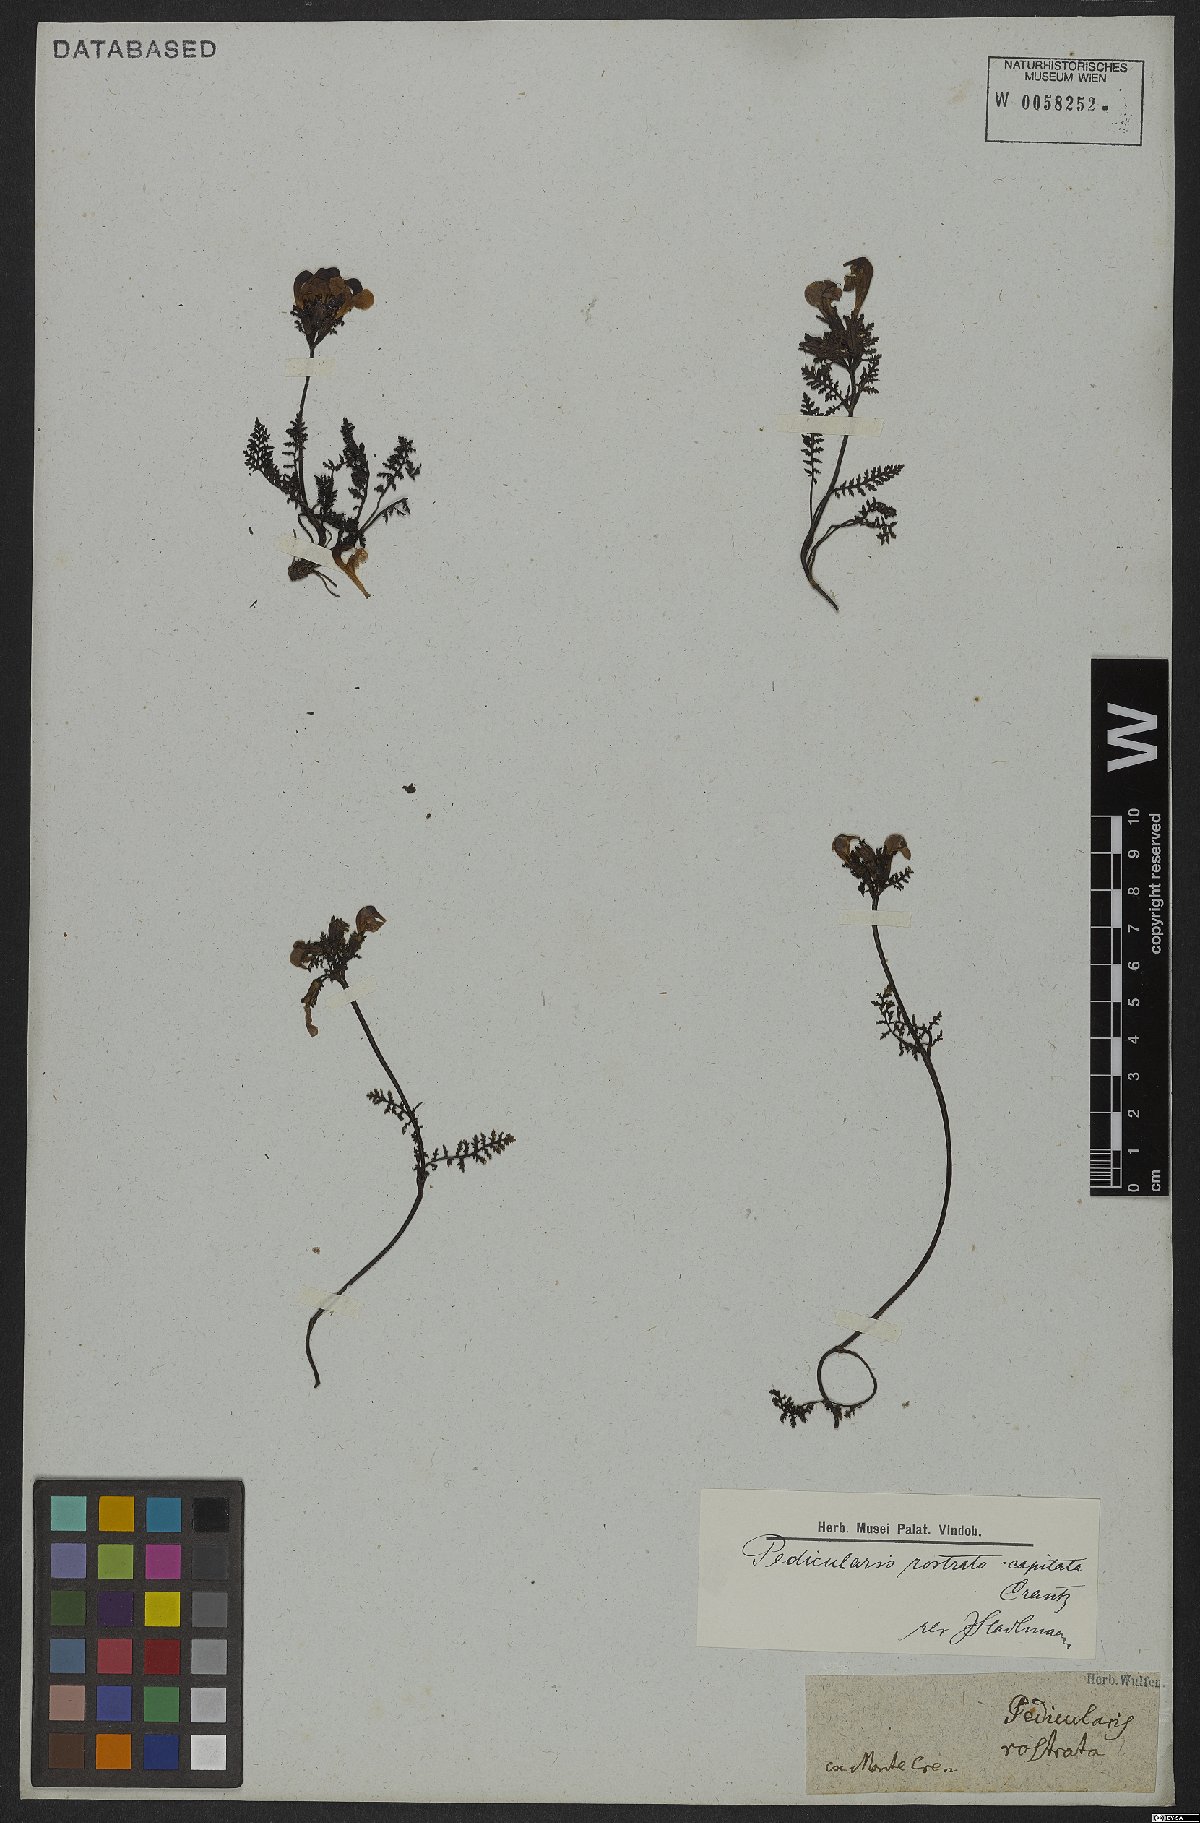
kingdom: Plantae
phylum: Tracheophyta
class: Magnoliopsida
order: Lamiales
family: Orobanchaceae
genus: Pedicularis
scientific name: Pedicularis rostratocapitata
